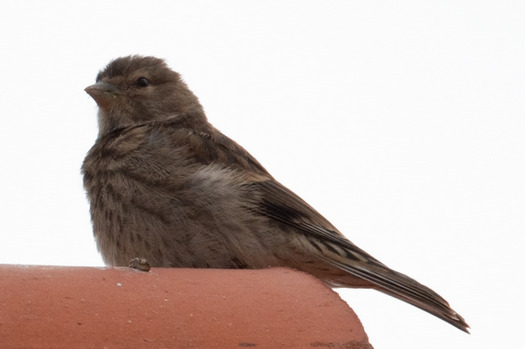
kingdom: Animalia
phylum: Chordata
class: Aves
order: Passeriformes
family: Passeridae
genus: Passer
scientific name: Passer montanus
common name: Skovspurv
